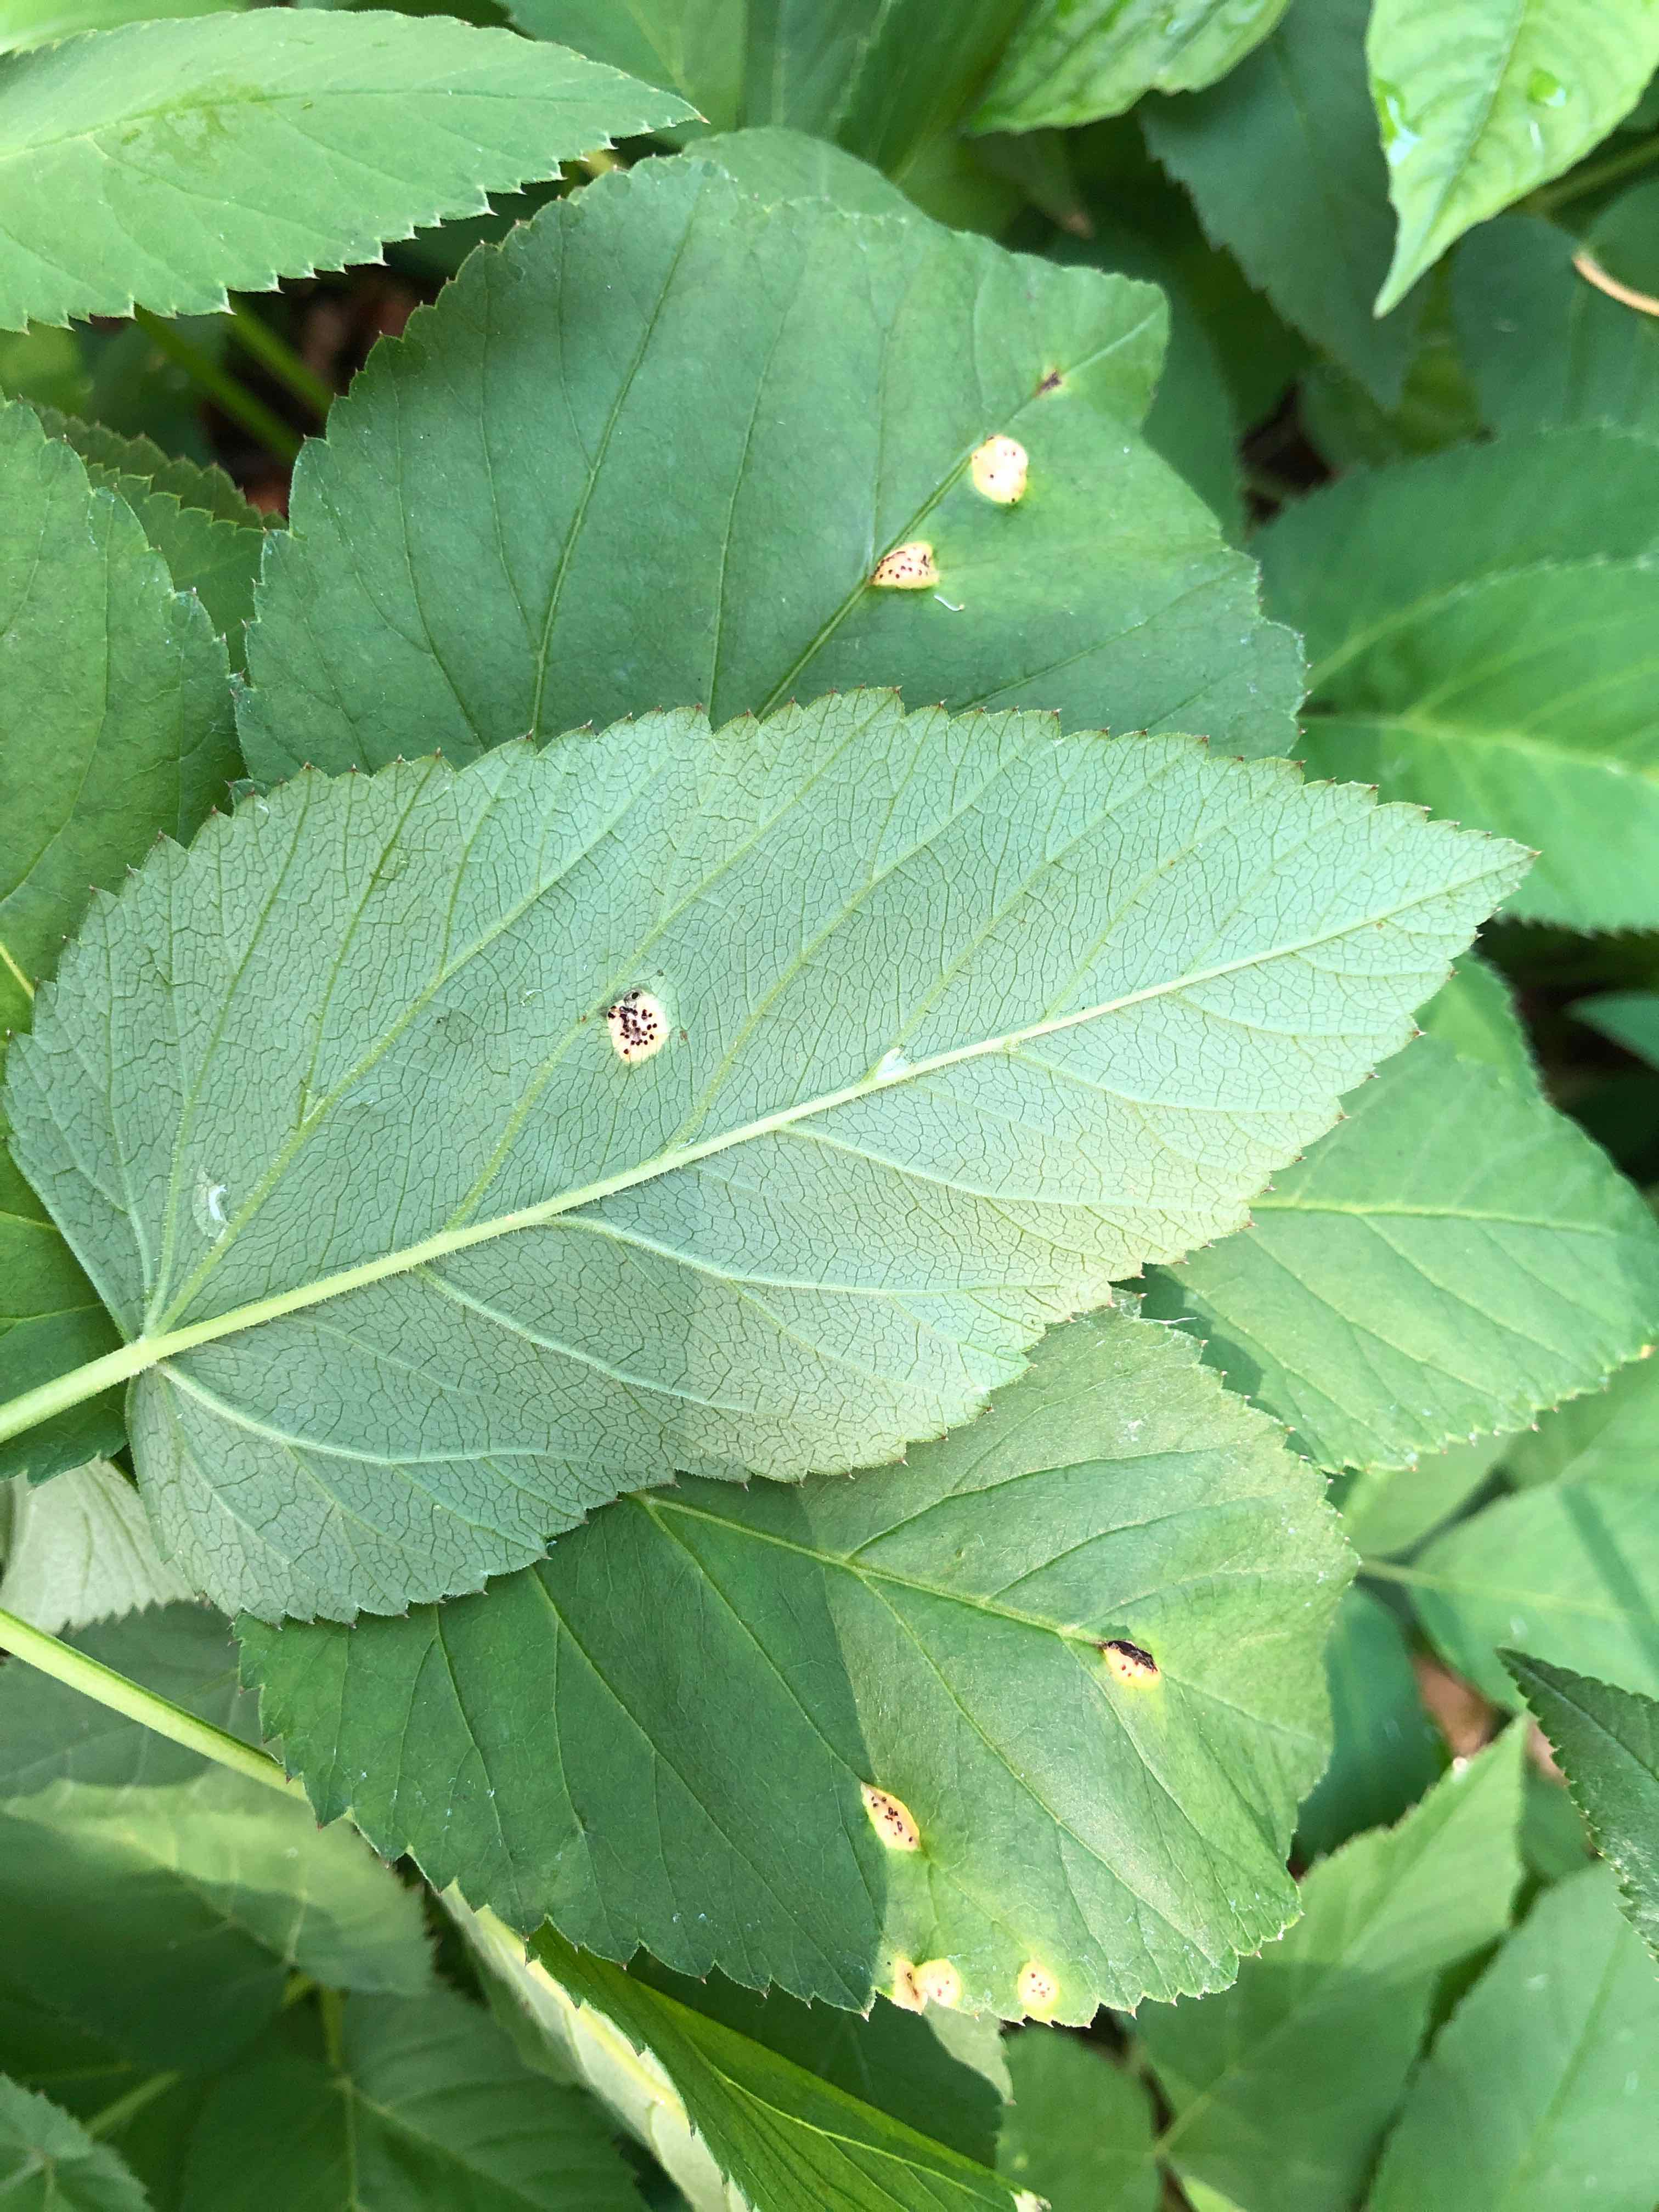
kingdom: Fungi
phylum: Basidiomycota
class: Pucciniomycetes
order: Pucciniales
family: Pucciniaceae
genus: Puccinia
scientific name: Puccinia
